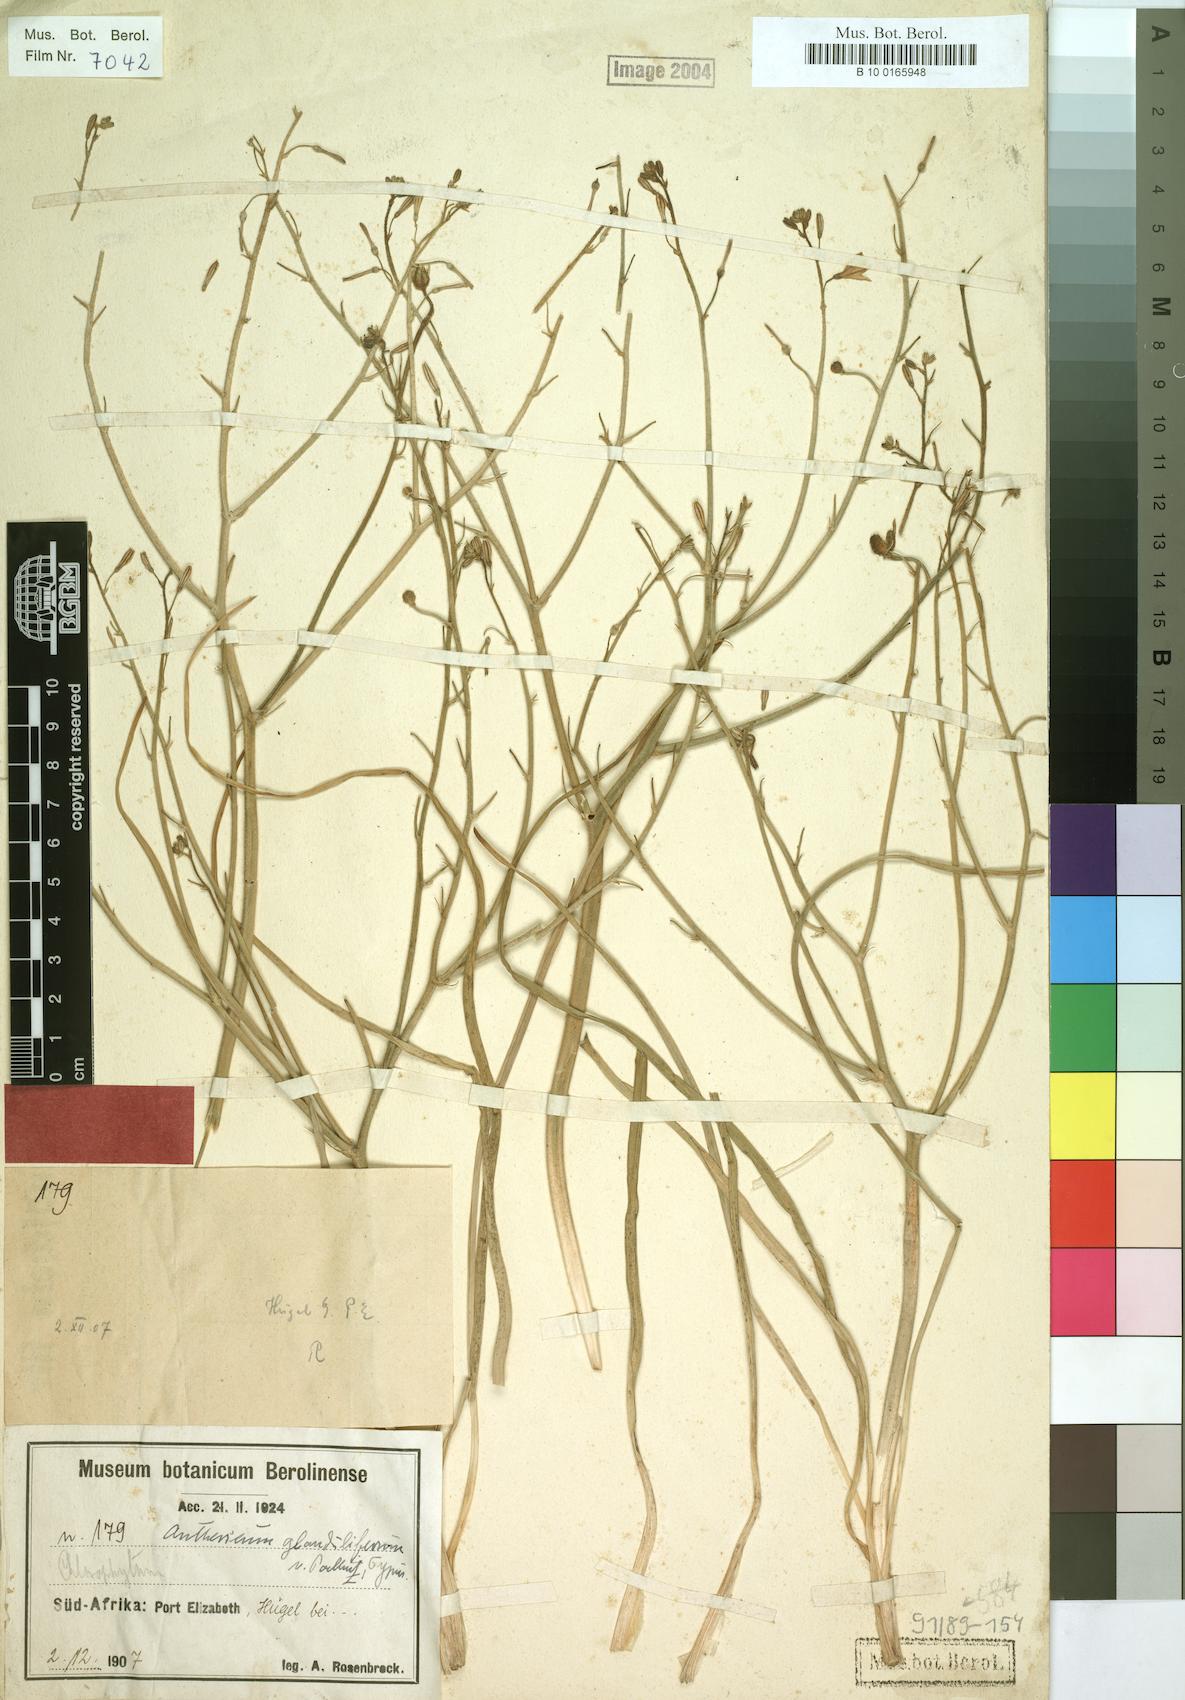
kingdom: Plantae
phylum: Tracheophyta
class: Liliopsida
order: Asparagales
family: Asparagaceae
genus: Anthericum
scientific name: Anthericum
